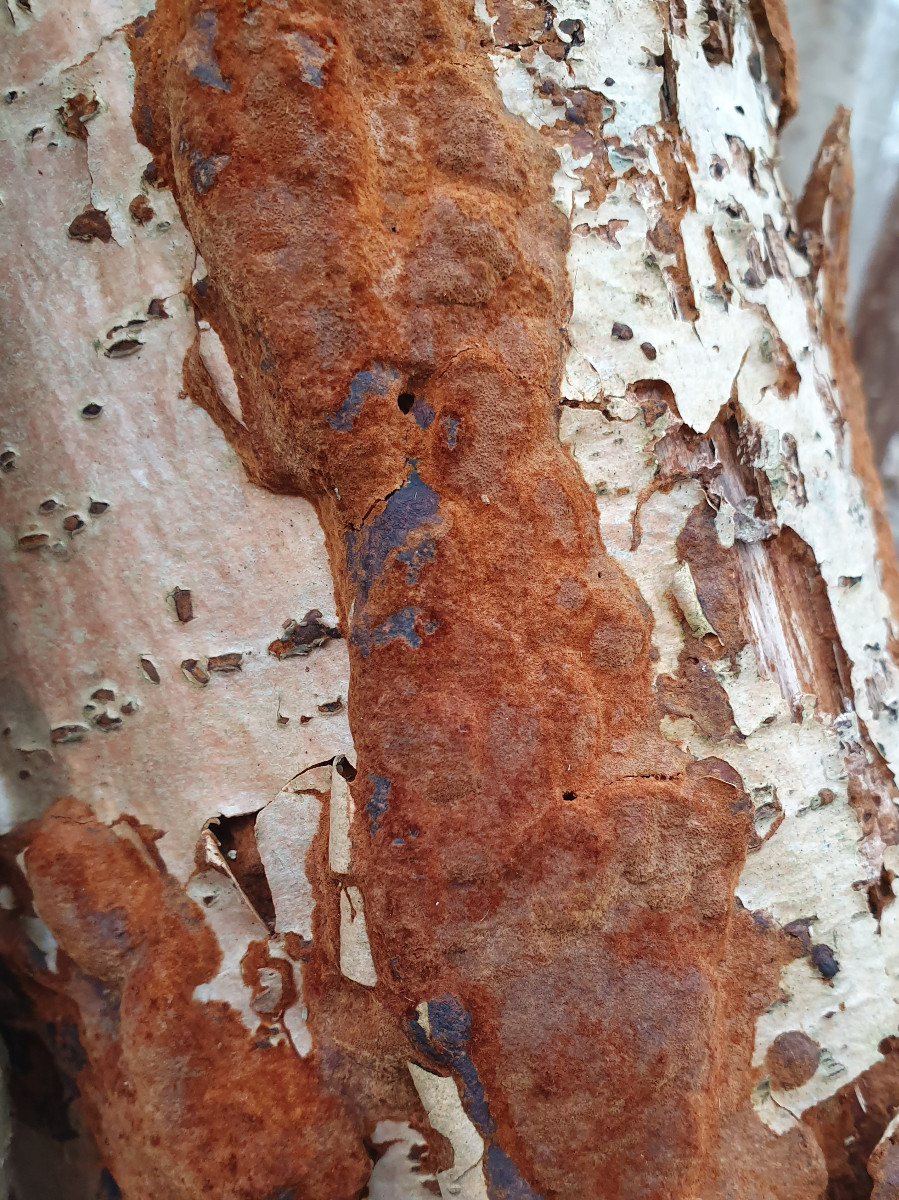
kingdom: Fungi
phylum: Basidiomycota
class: Agaricomycetes
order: Hymenochaetales
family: Hymenochaetaceae
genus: Fuscoporia
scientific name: Fuscoporia ferruginosa
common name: rustbrun ildporesvamp
